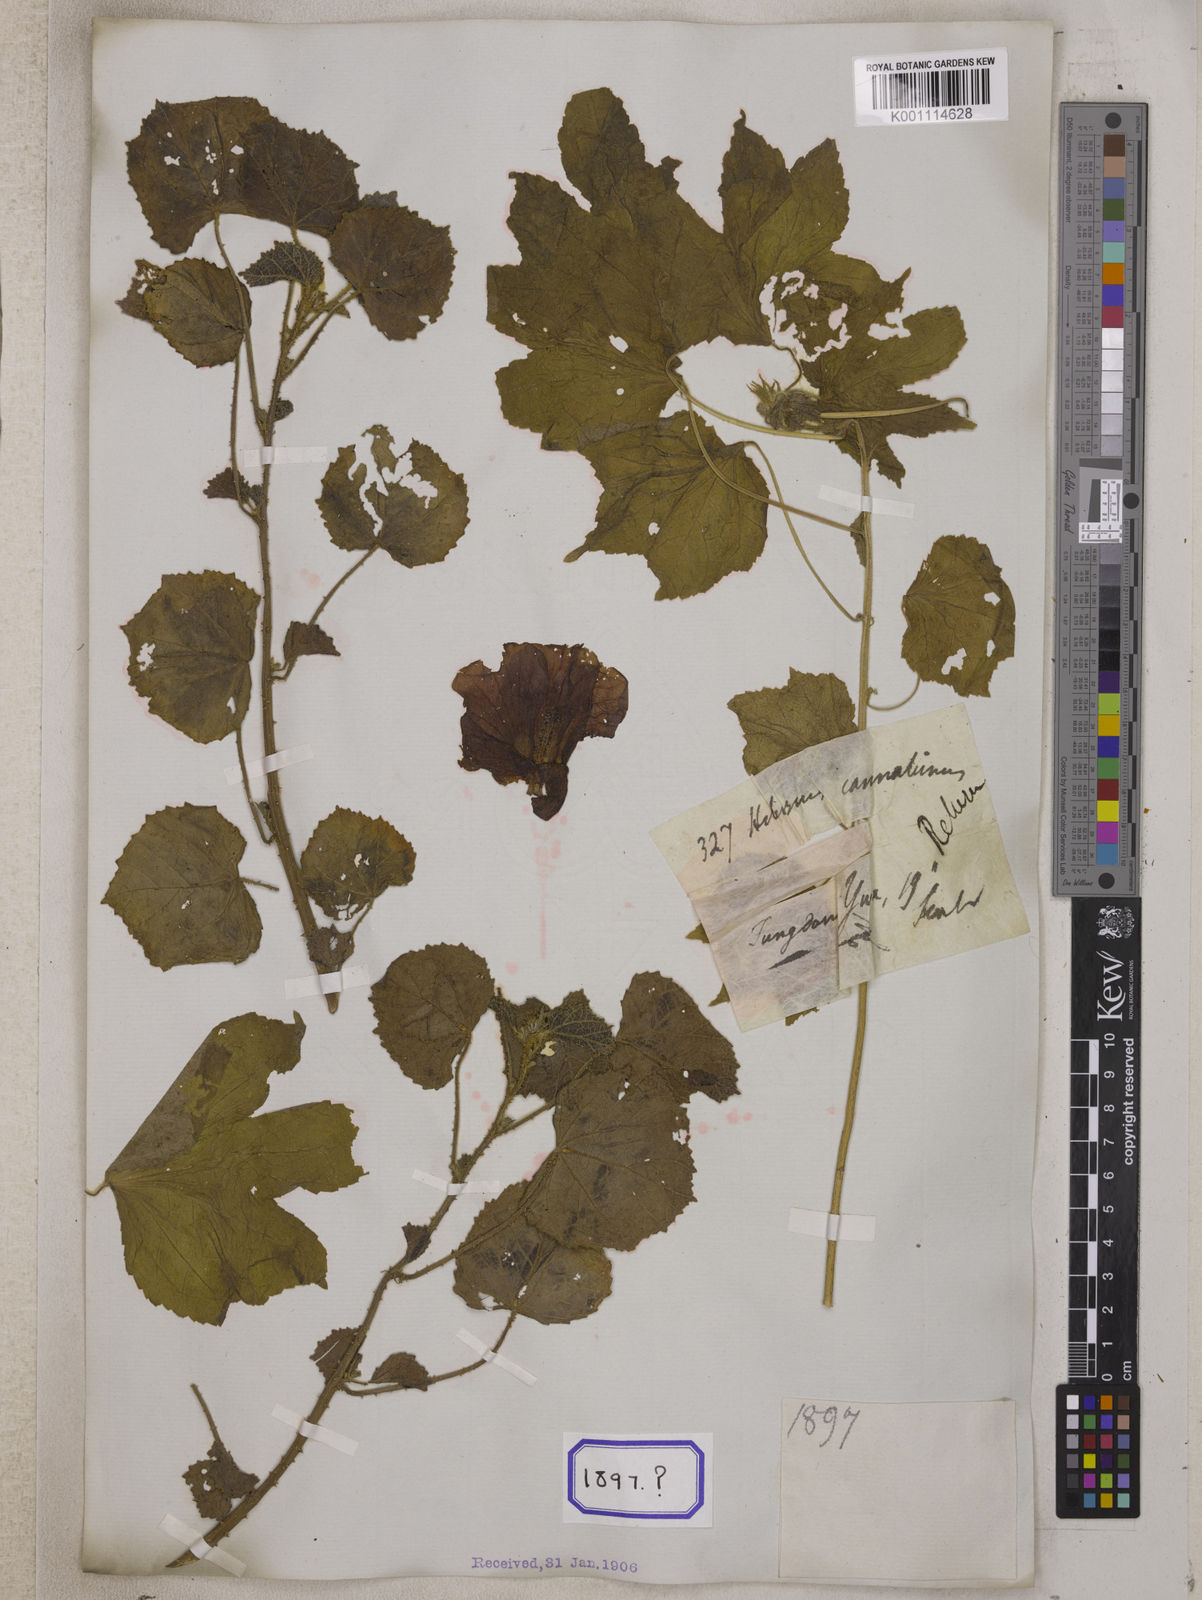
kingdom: Plantae
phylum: Tracheophyta
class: Magnoliopsida
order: Malvales
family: Malvaceae
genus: Hibiscus
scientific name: Hibiscus diversifolius
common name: Cape hibiscus
